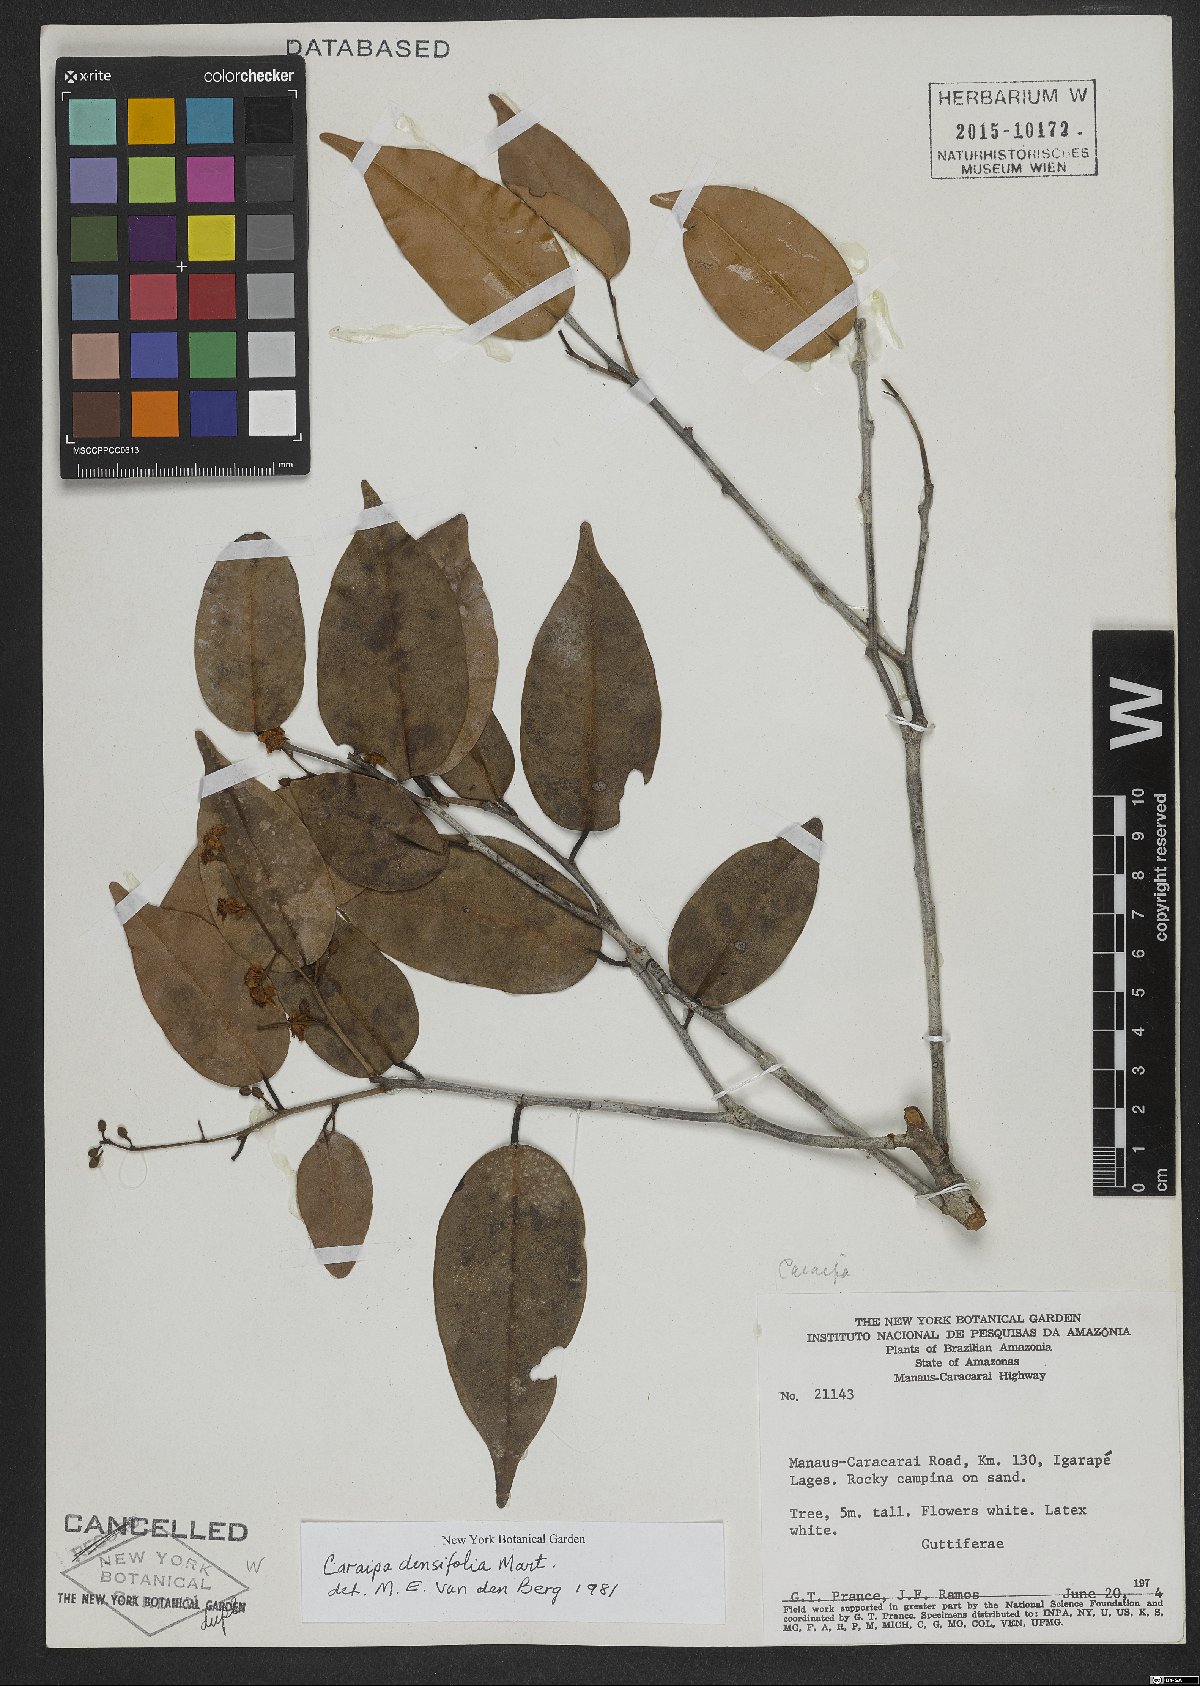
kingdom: Plantae
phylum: Tracheophyta
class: Magnoliopsida
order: Malpighiales
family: Calophyllaceae
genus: Caraipa
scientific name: Caraipa densifolia
